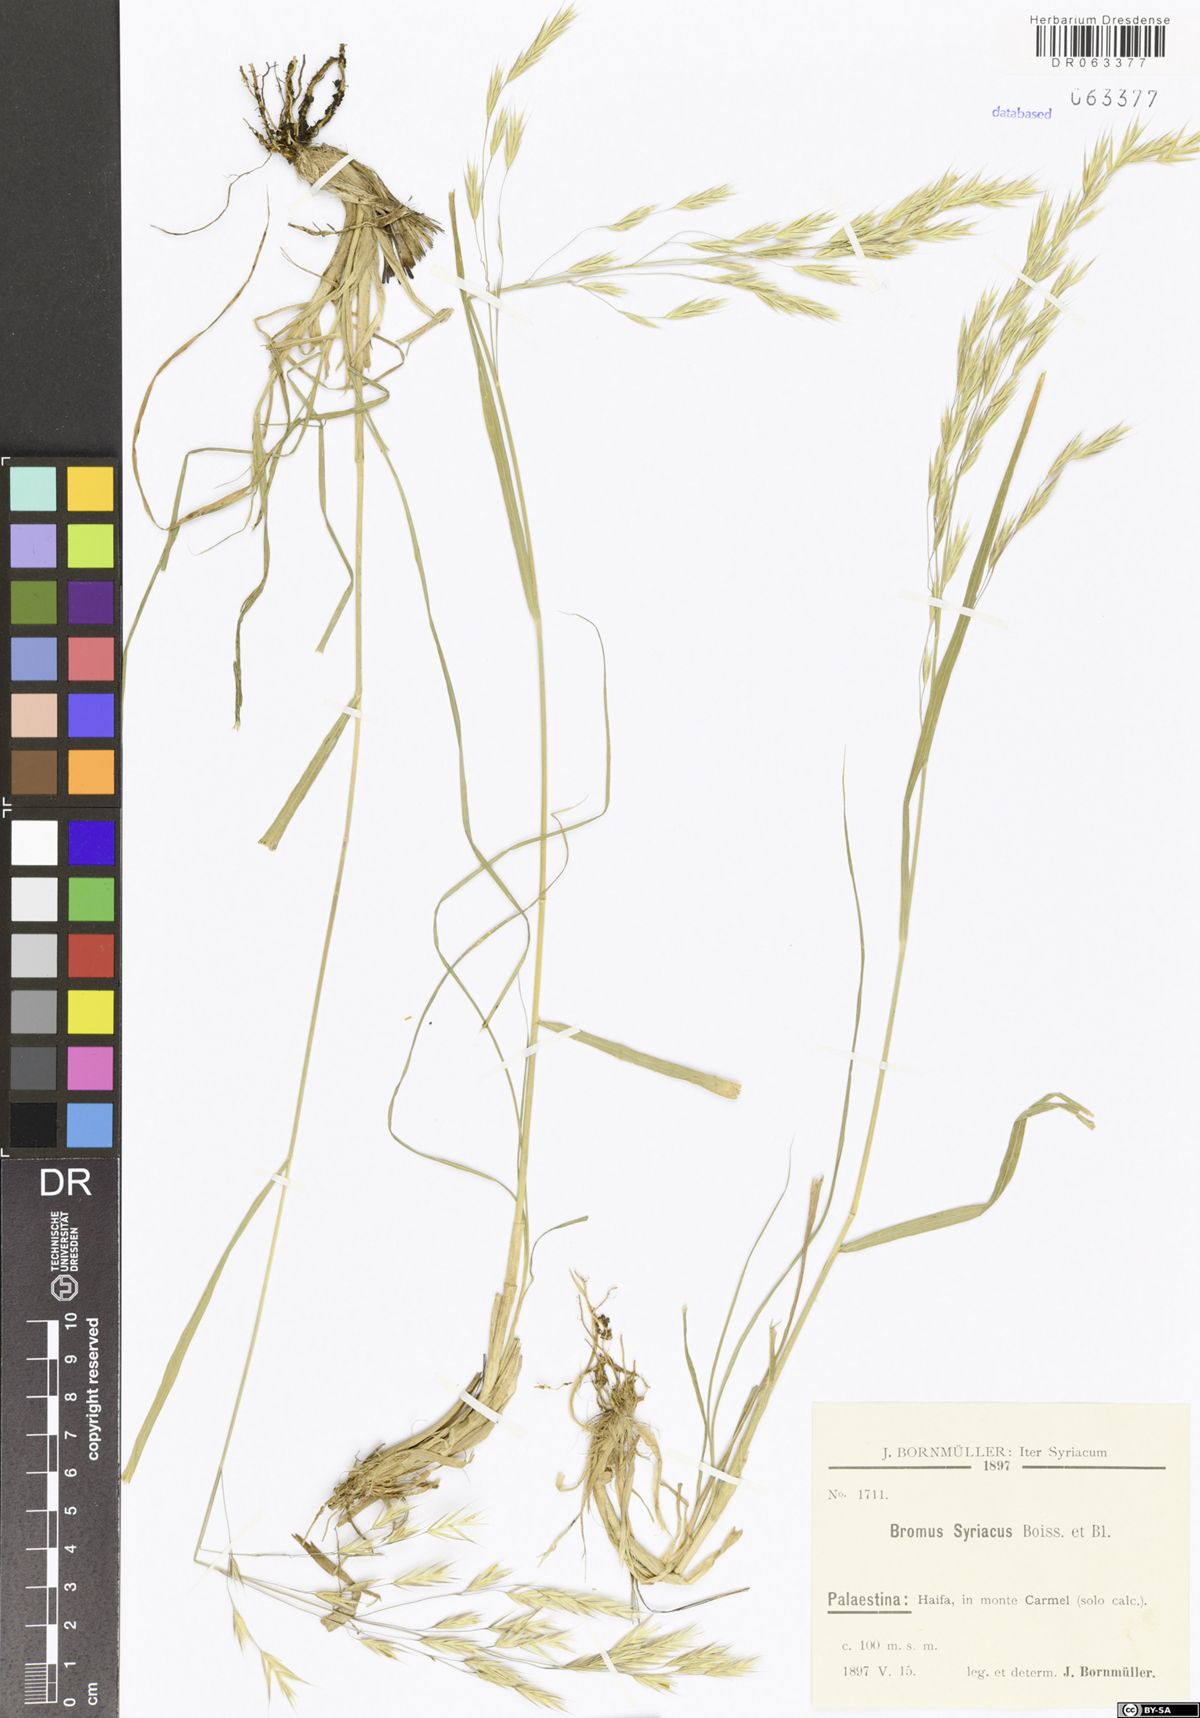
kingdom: Plantae
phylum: Tracheophyta
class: Liliopsida
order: Poales
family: Poaceae
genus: Bromus
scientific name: Bromus syriacus
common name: Syrian brome
